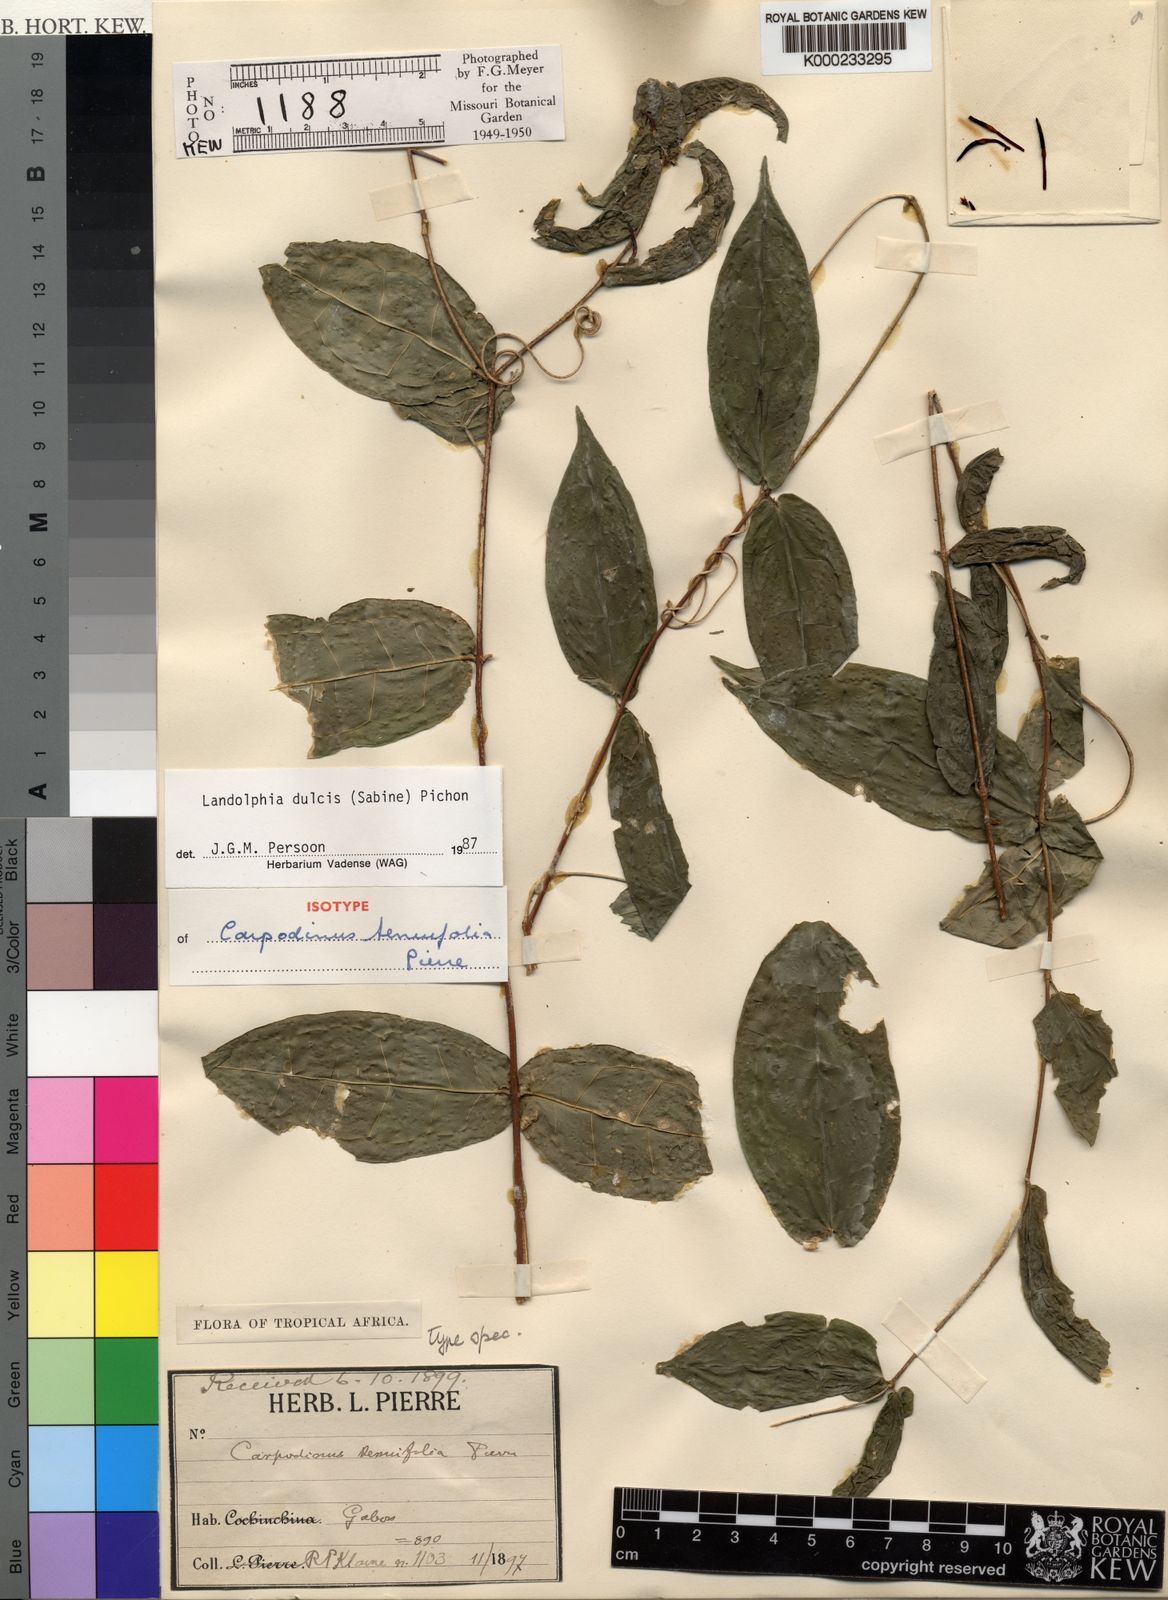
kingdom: Plantae
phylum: Tracheophyta
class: Magnoliopsida
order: Gentianales
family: Apocynaceae
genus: Landolphia
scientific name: Landolphia dulcis
